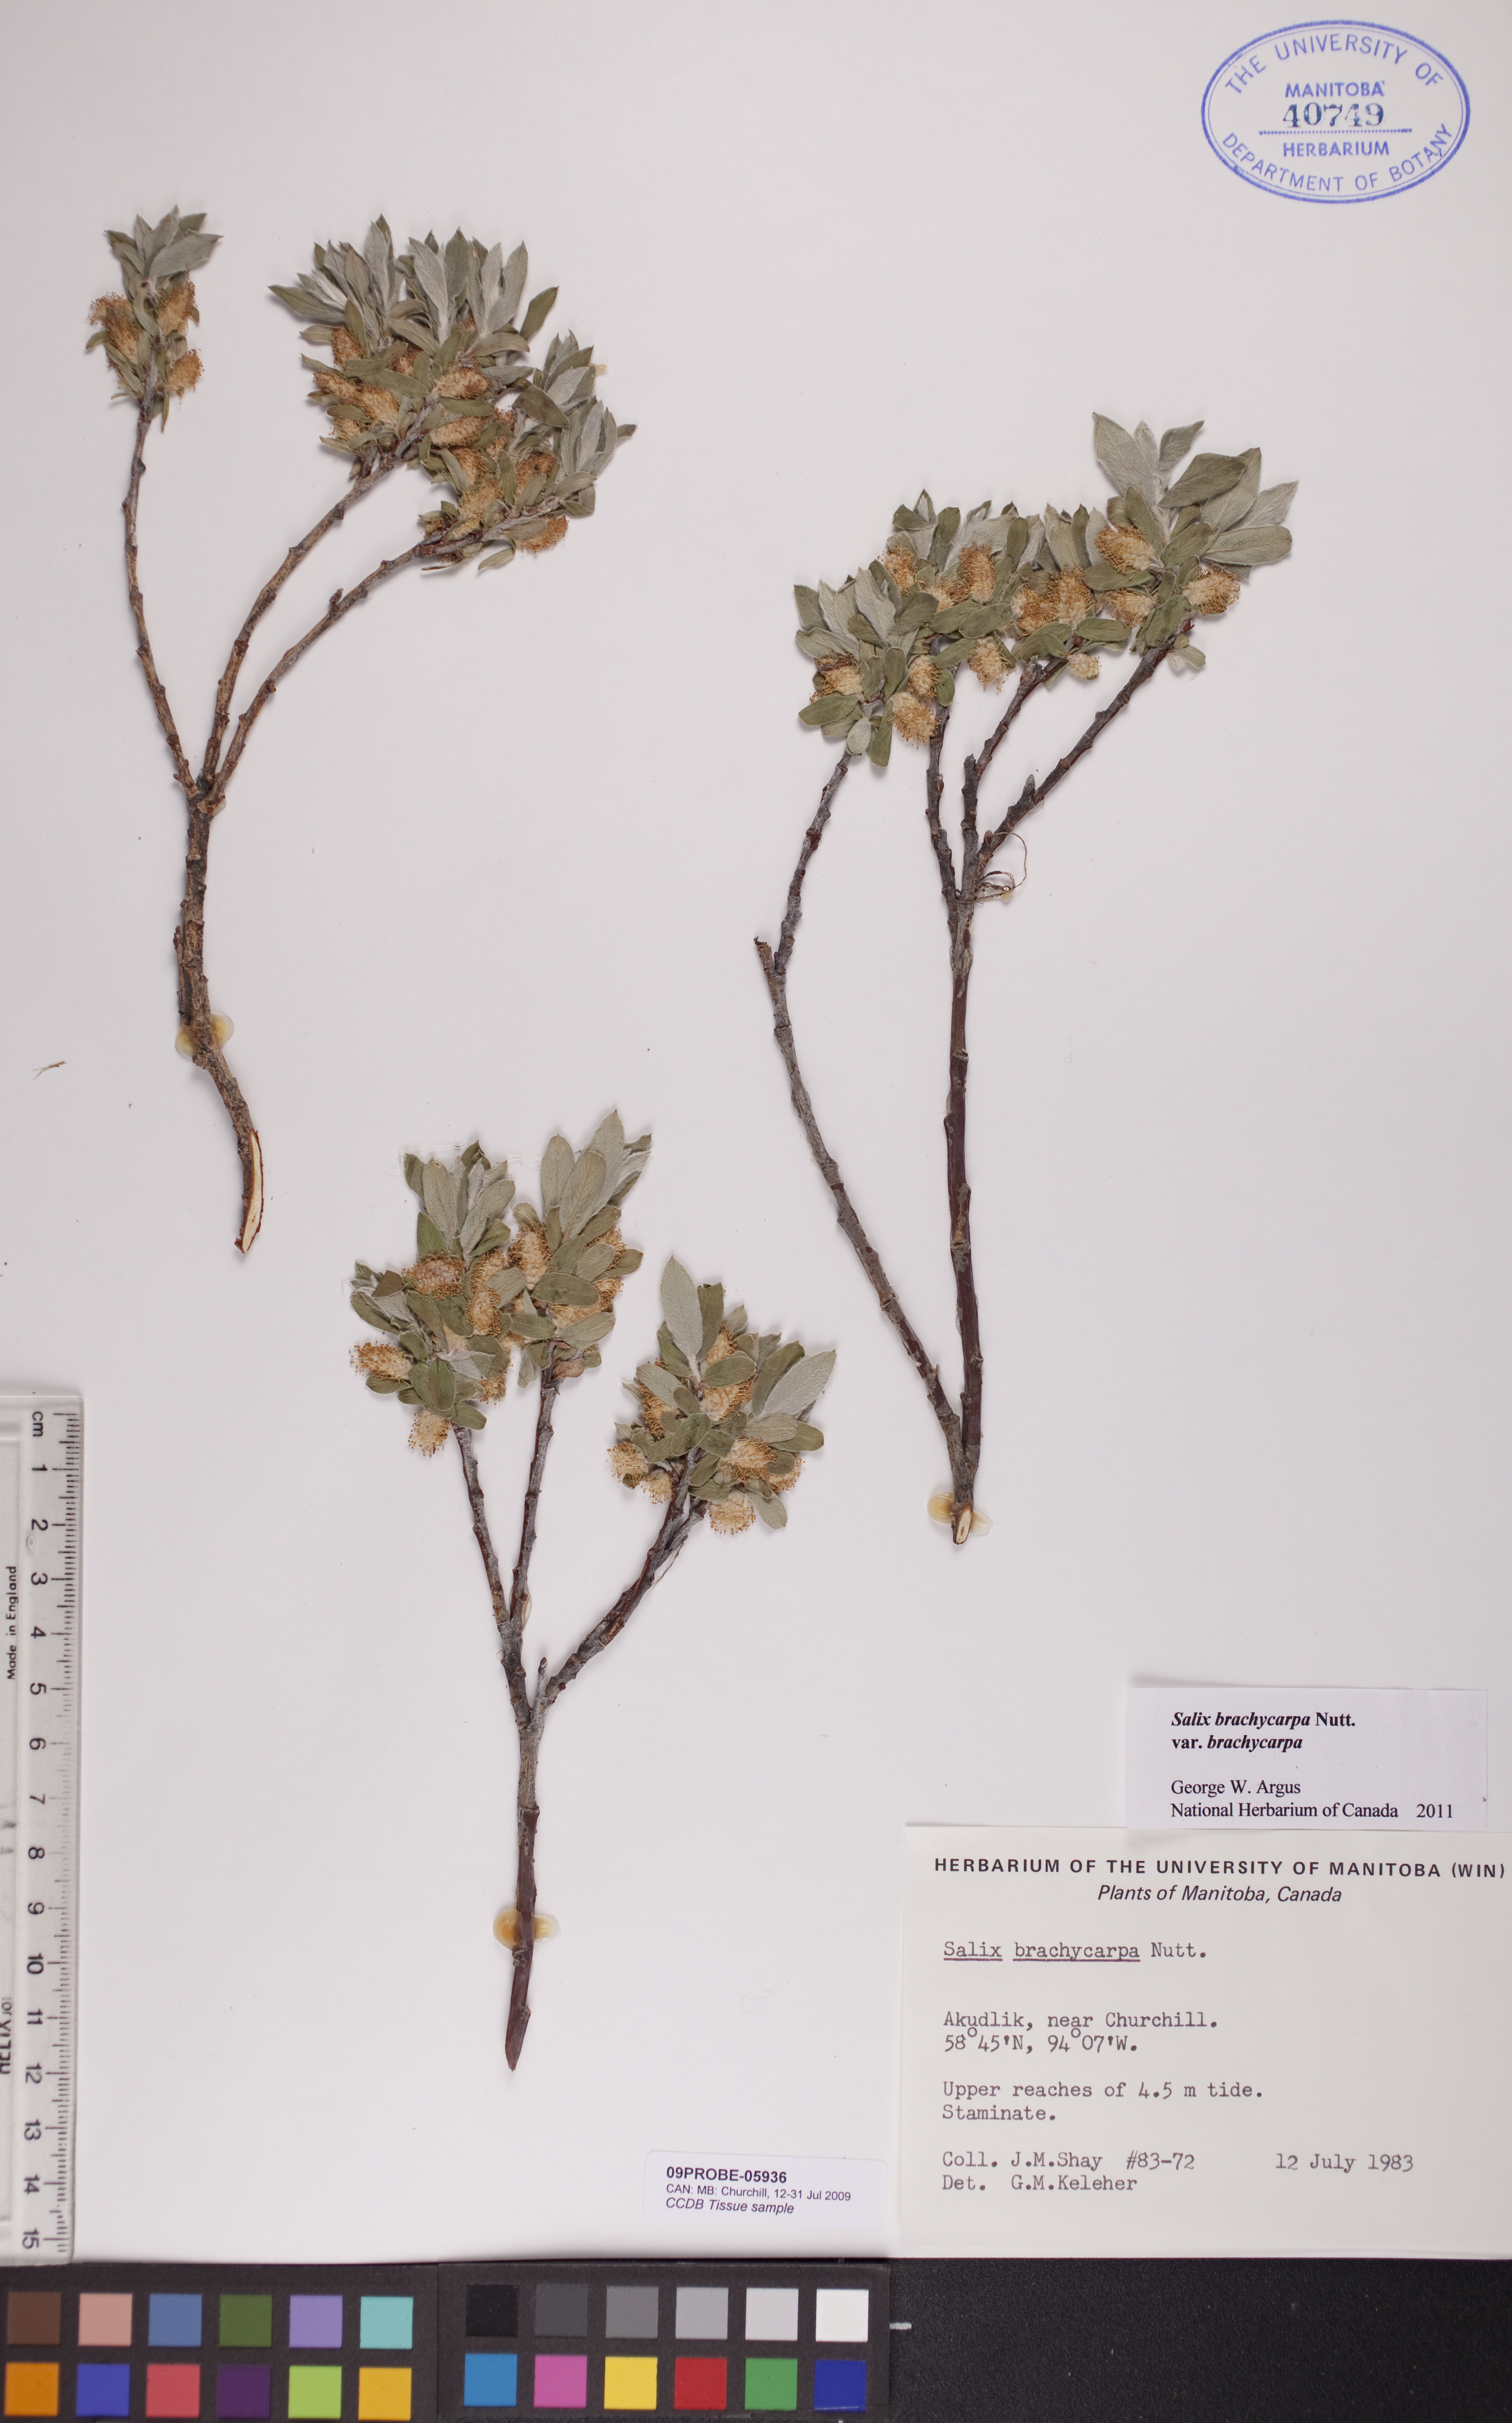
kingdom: Plantae
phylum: Tracheophyta
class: Magnoliopsida
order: Malpighiales
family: Salicaceae
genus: Salix
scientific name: Salix brachycarpa
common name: Barren-ground willow
